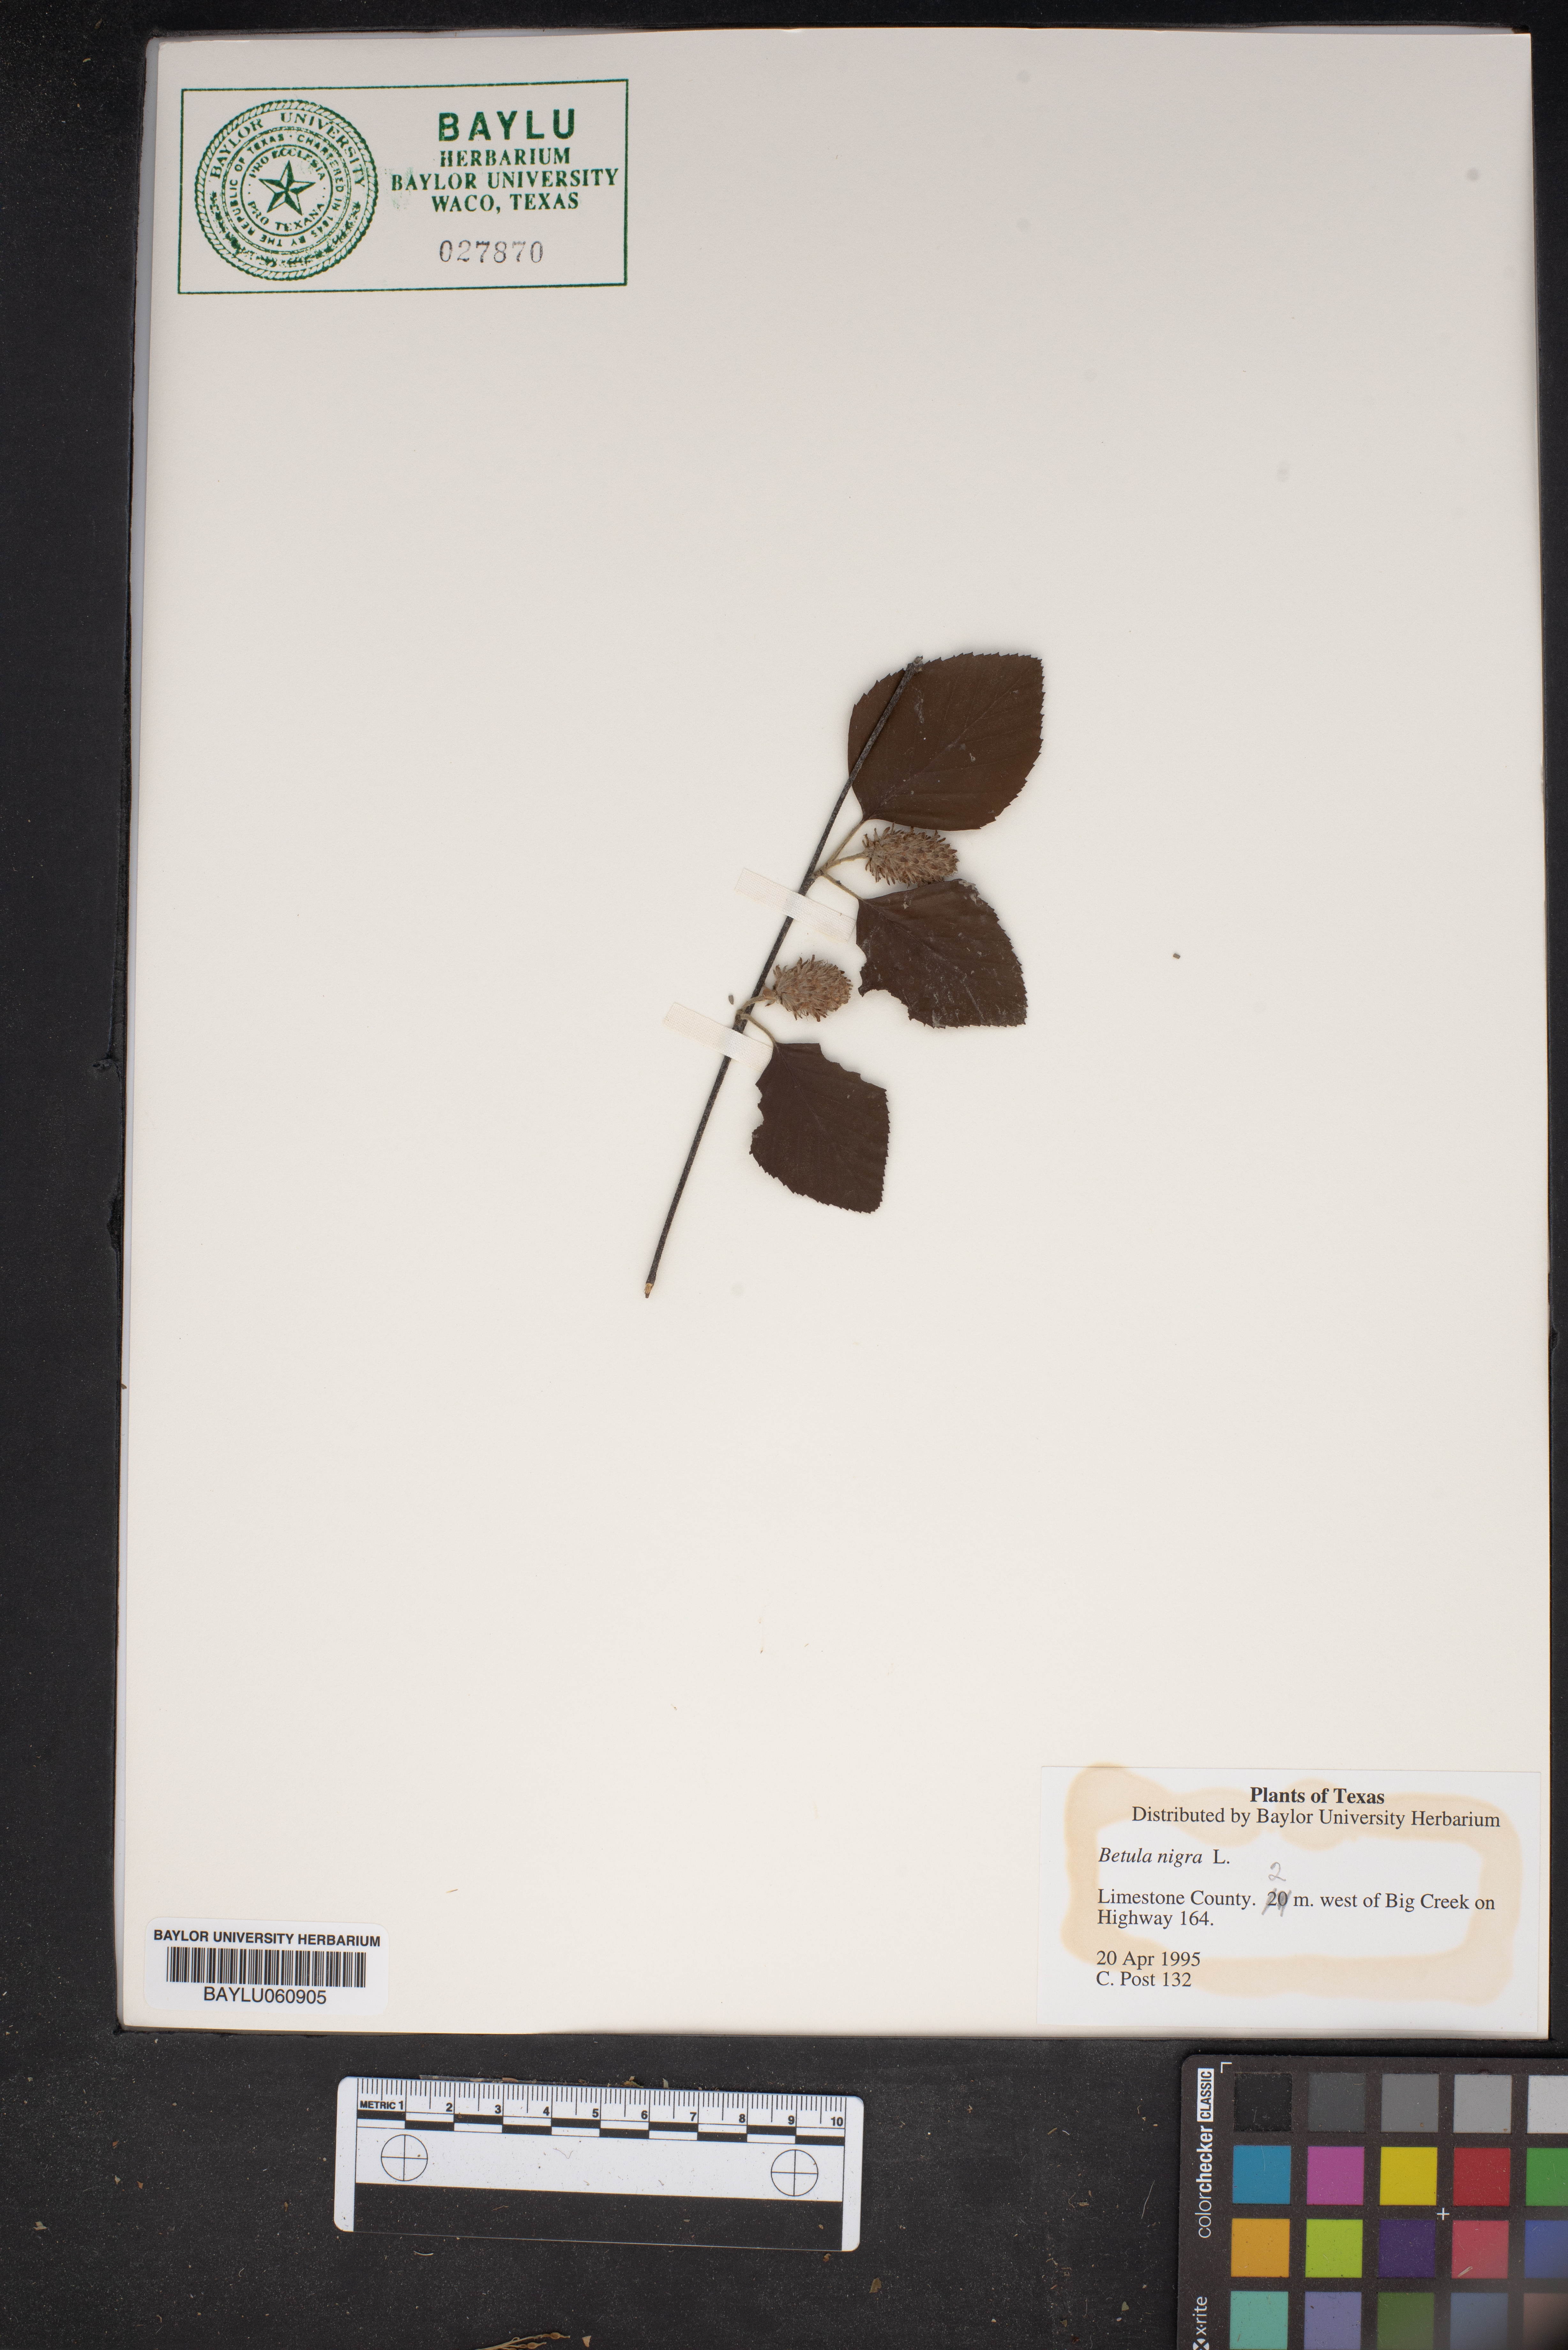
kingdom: Plantae
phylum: Tracheophyta
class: Magnoliopsida
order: Fagales
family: Betulaceae
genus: Betula
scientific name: Betula nigra
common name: Black birch
